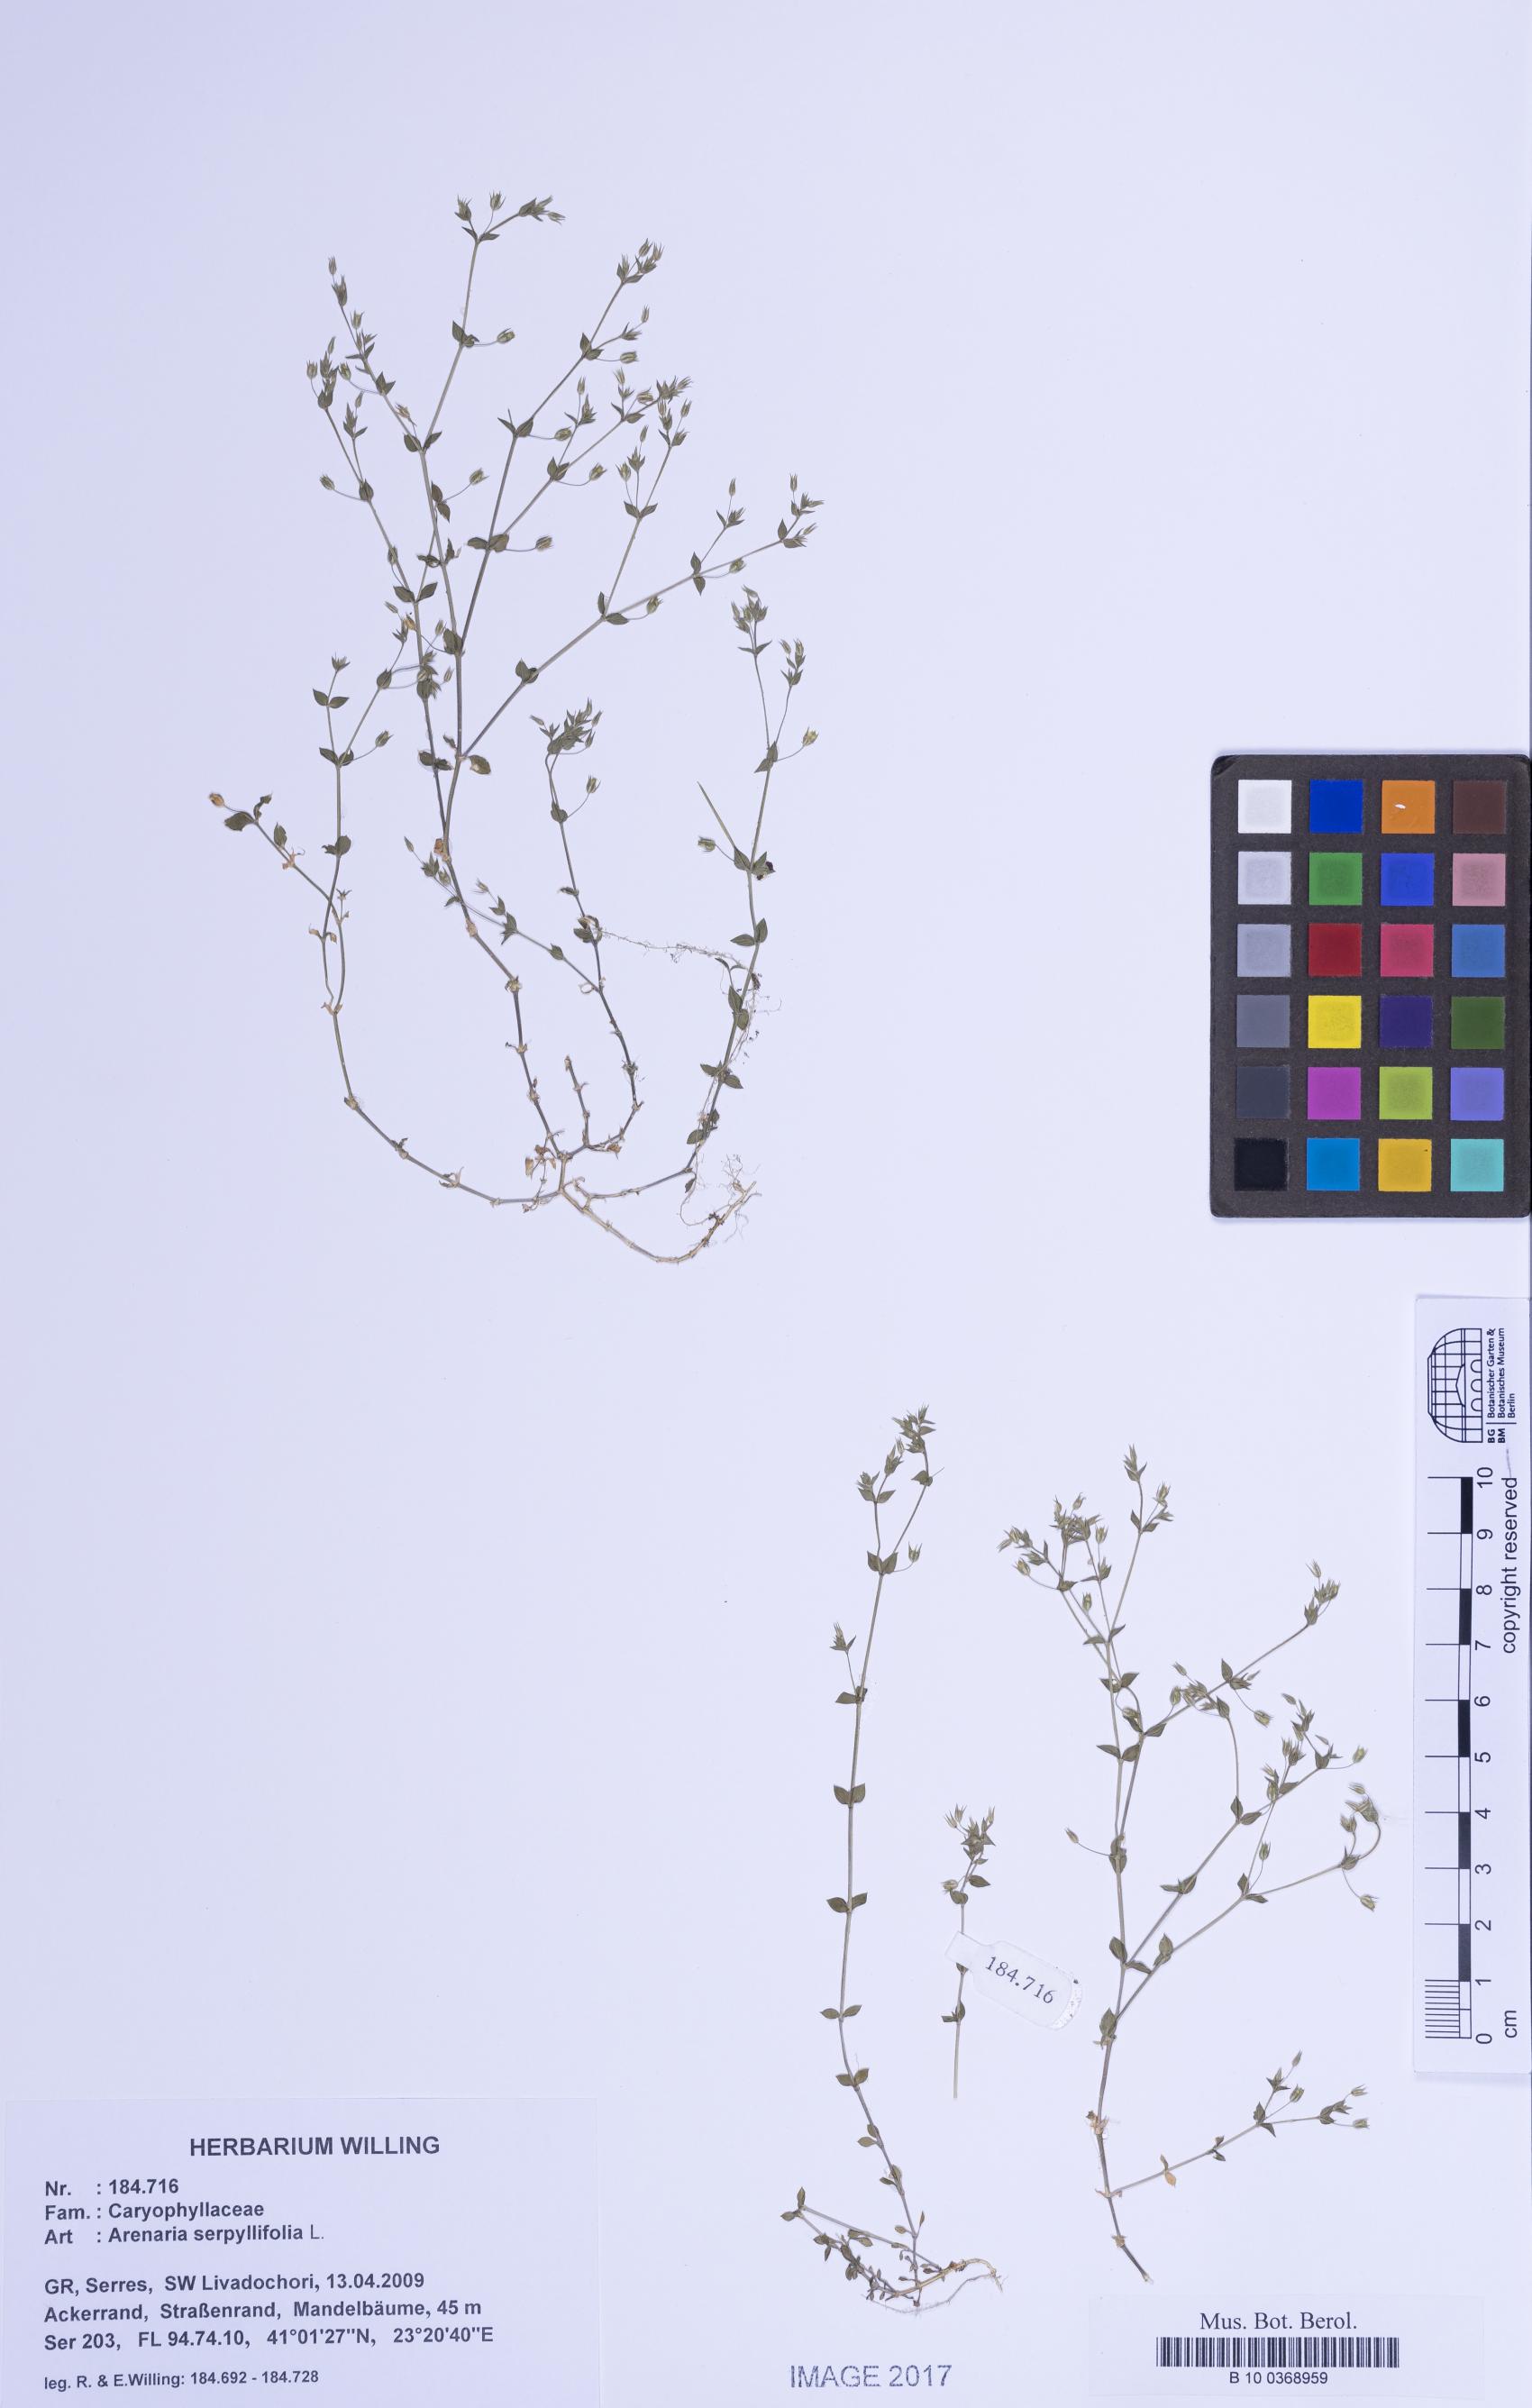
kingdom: Plantae
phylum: Tracheophyta
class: Magnoliopsida
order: Caryophyllales
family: Caryophyllaceae
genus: Arenaria
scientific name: Arenaria serpyllifolia
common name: Thyme-leaved sandwort
